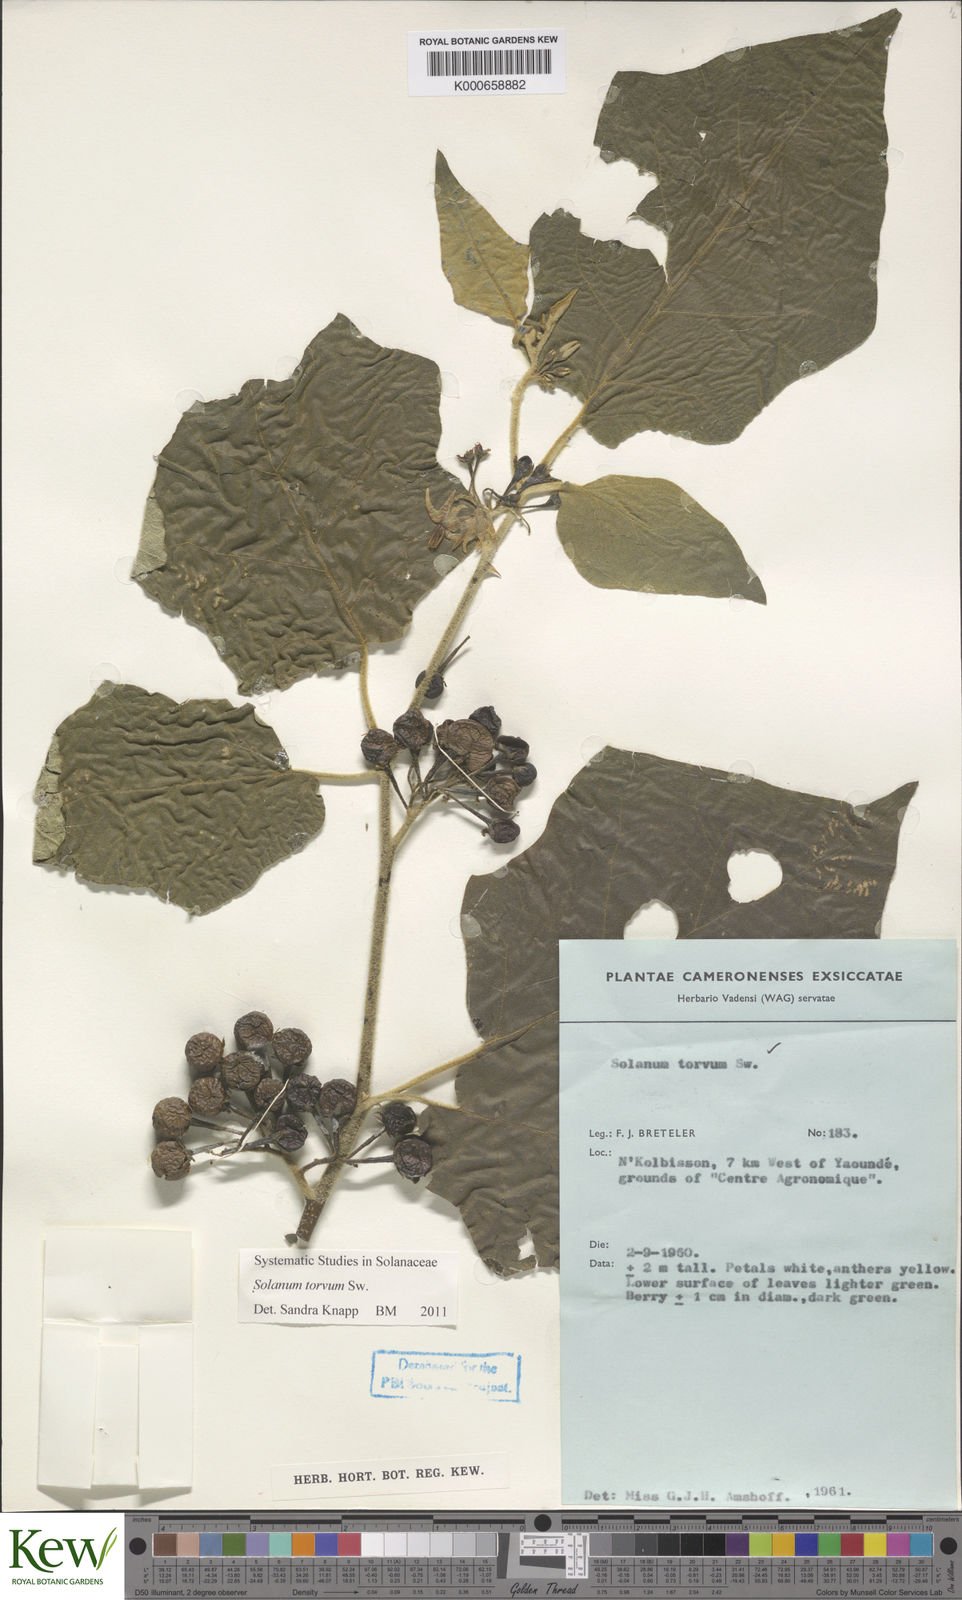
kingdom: Plantae
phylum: Tracheophyta
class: Magnoliopsida
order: Solanales
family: Solanaceae
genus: Solanum
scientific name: Solanum torvum
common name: Turkey berry
